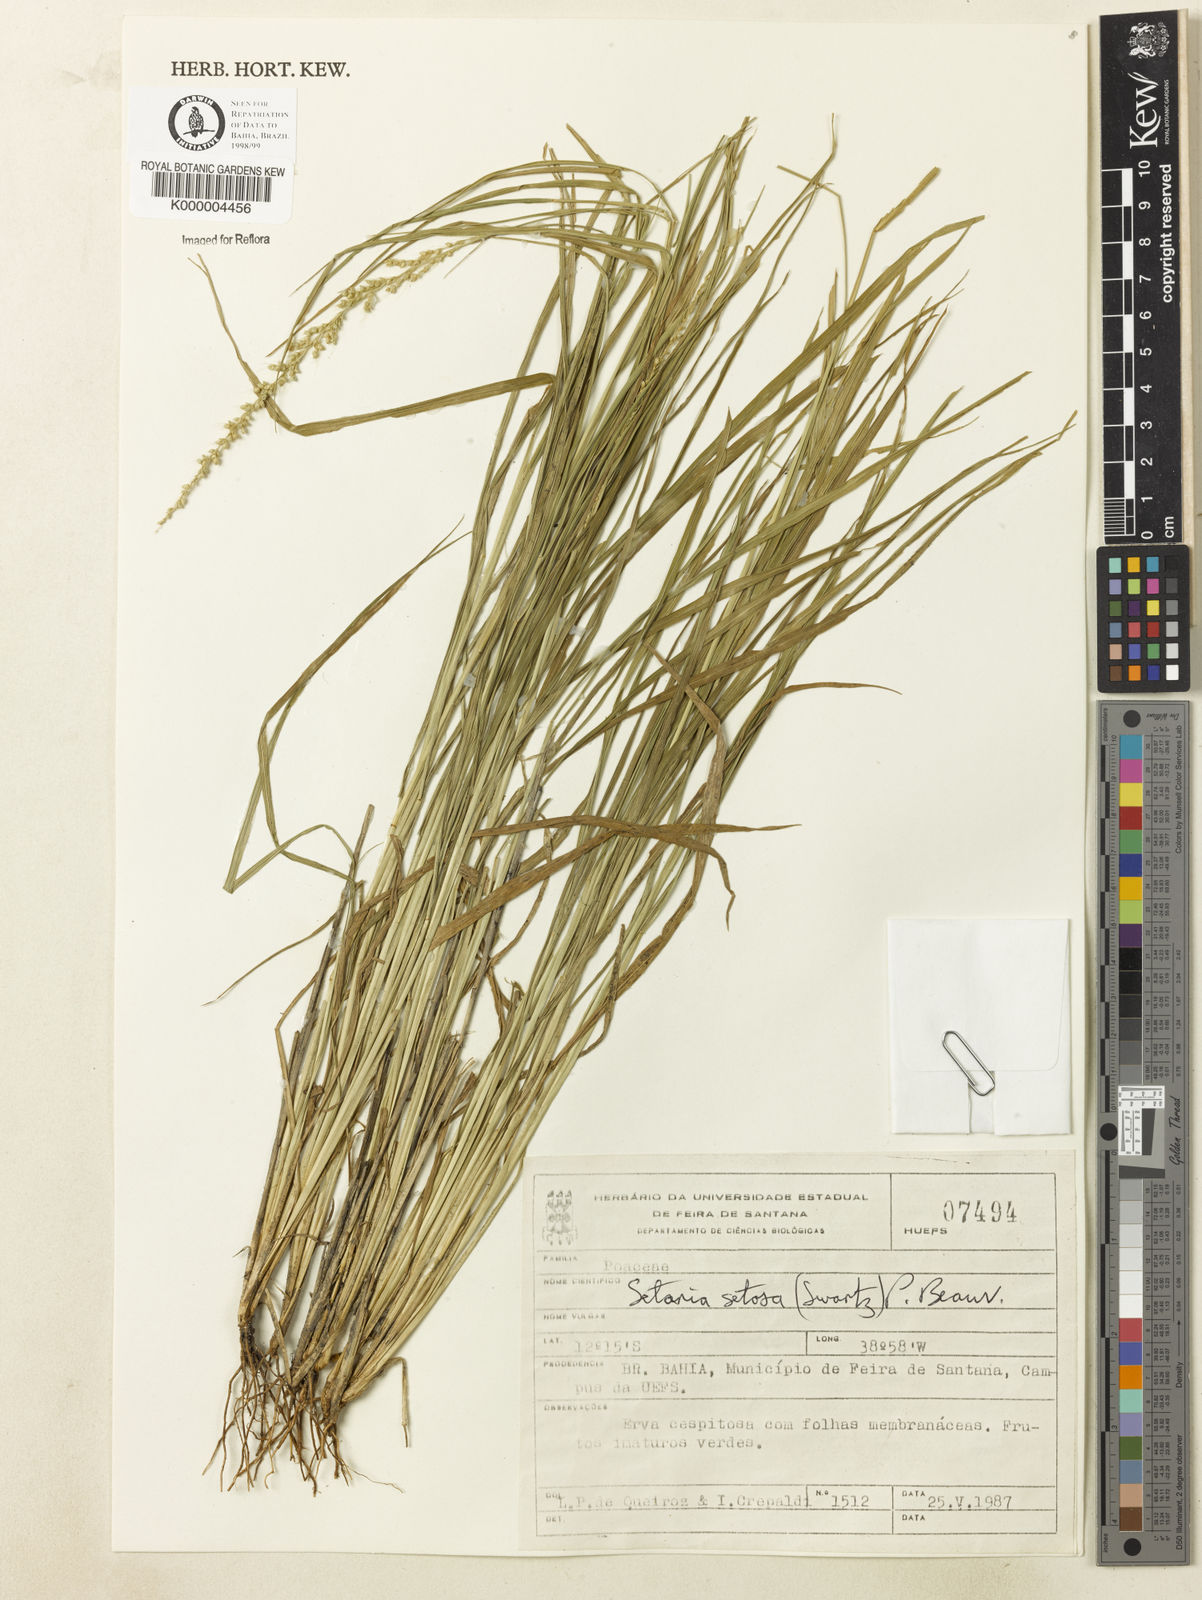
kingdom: Plantae
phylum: Tracheophyta
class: Liliopsida
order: Poales
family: Poaceae
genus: Setaria
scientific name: Setaria setosa
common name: West indies bristle grass
